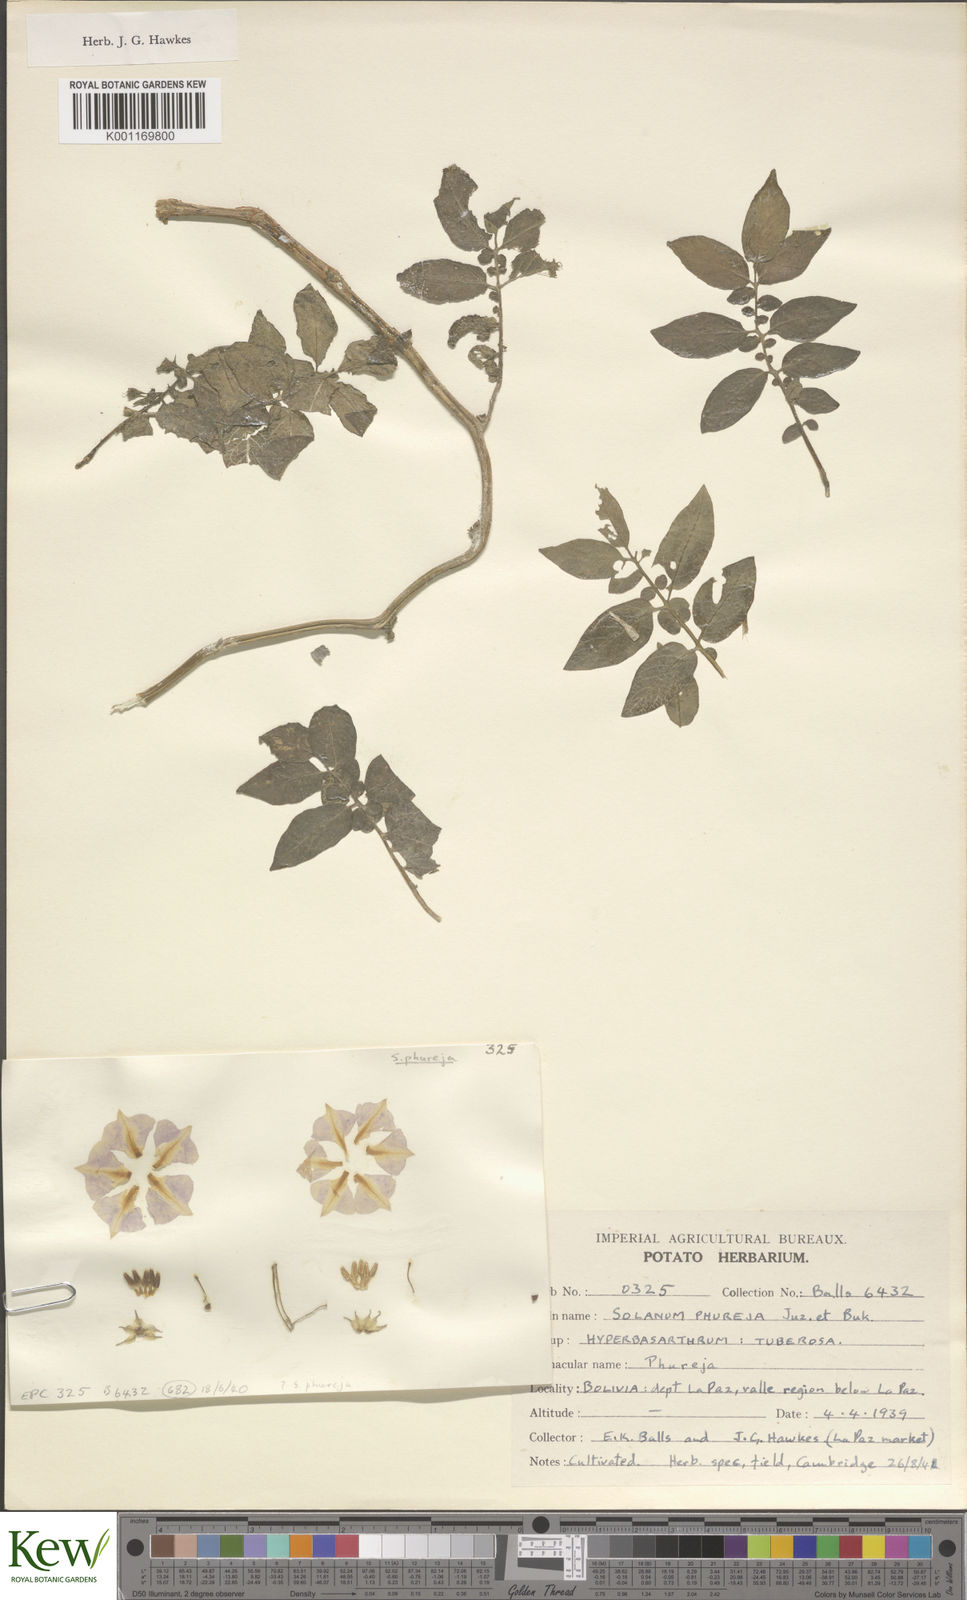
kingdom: Plantae
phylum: Tracheophyta
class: Magnoliopsida
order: Solanales
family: Solanaceae
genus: Solanum
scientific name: Solanum tuberosum
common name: Potato
